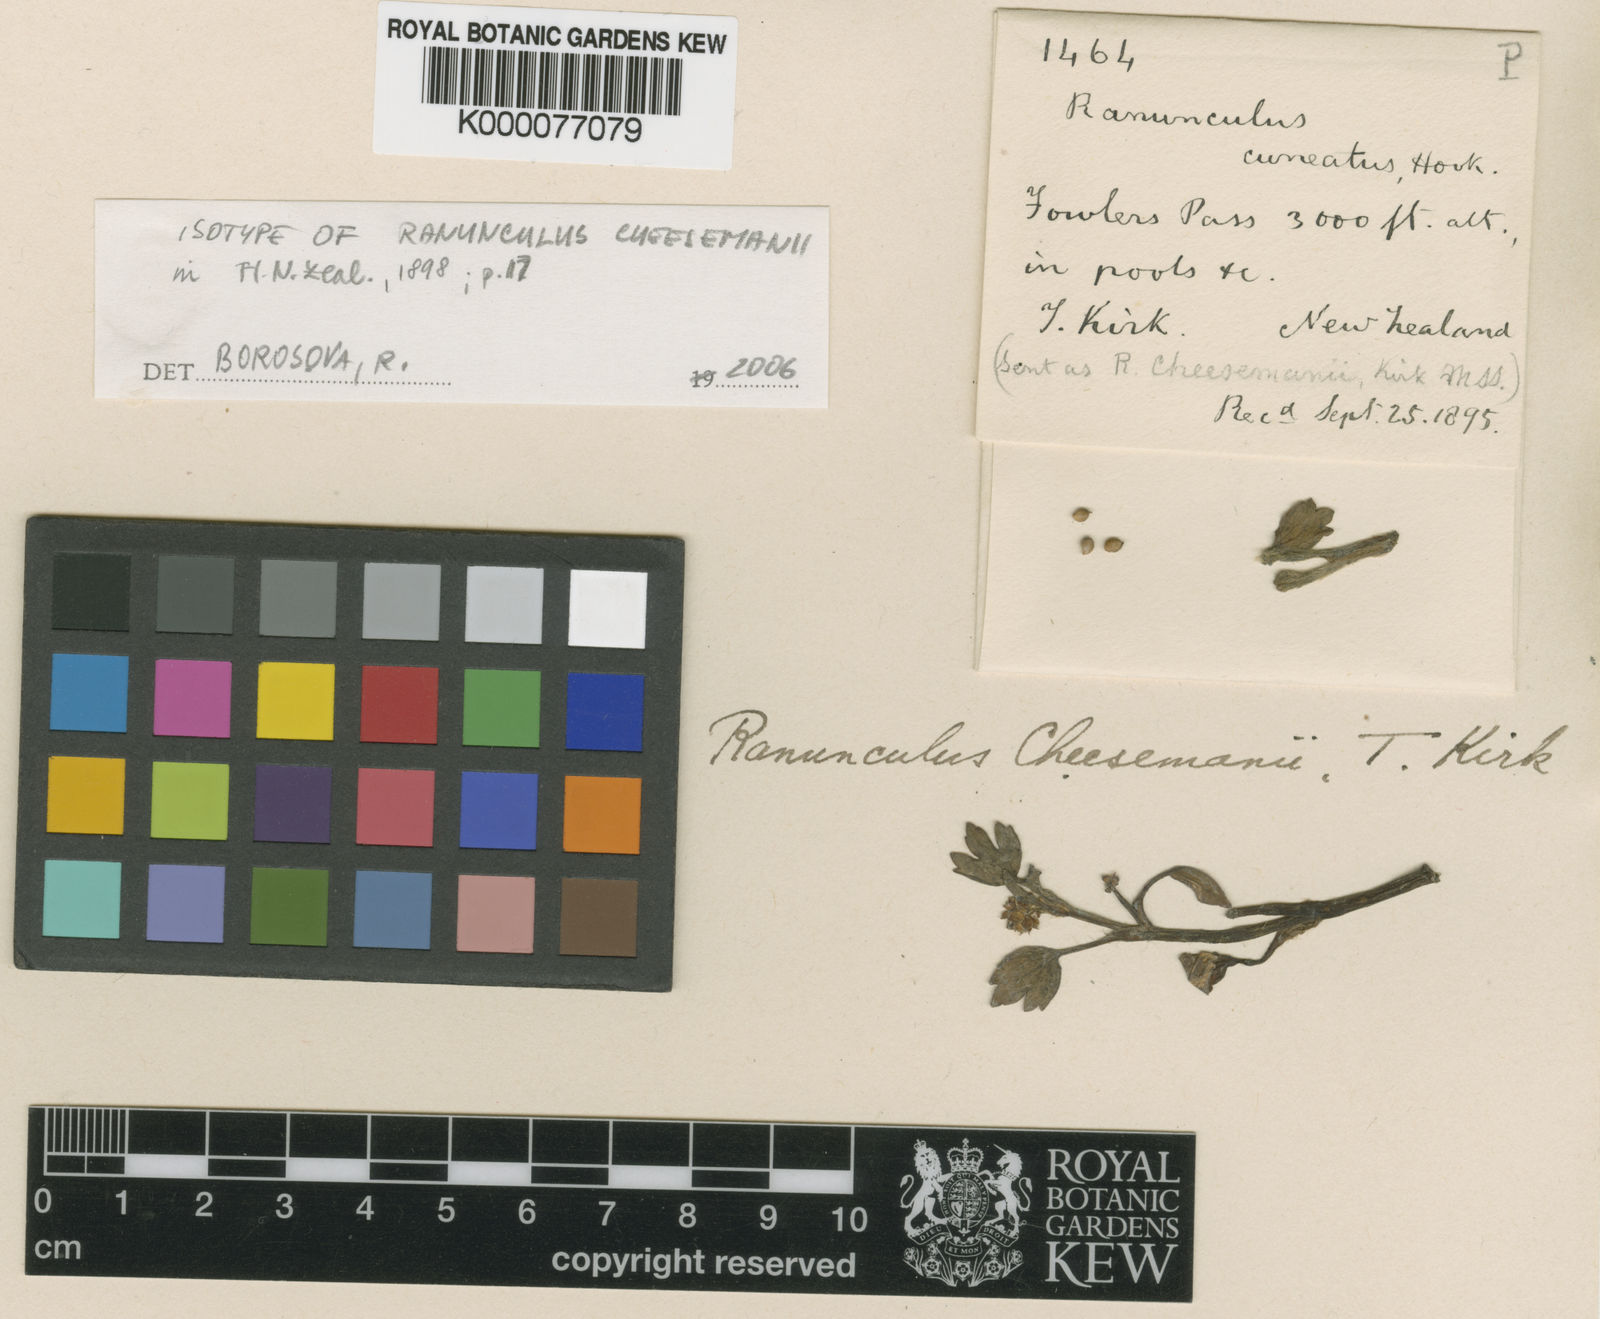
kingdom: Plantae
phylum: Tracheophyta
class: Magnoliopsida
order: Ranunculales
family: Ranunculaceae
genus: Ranunculus
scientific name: Ranunculus cheesemanii
